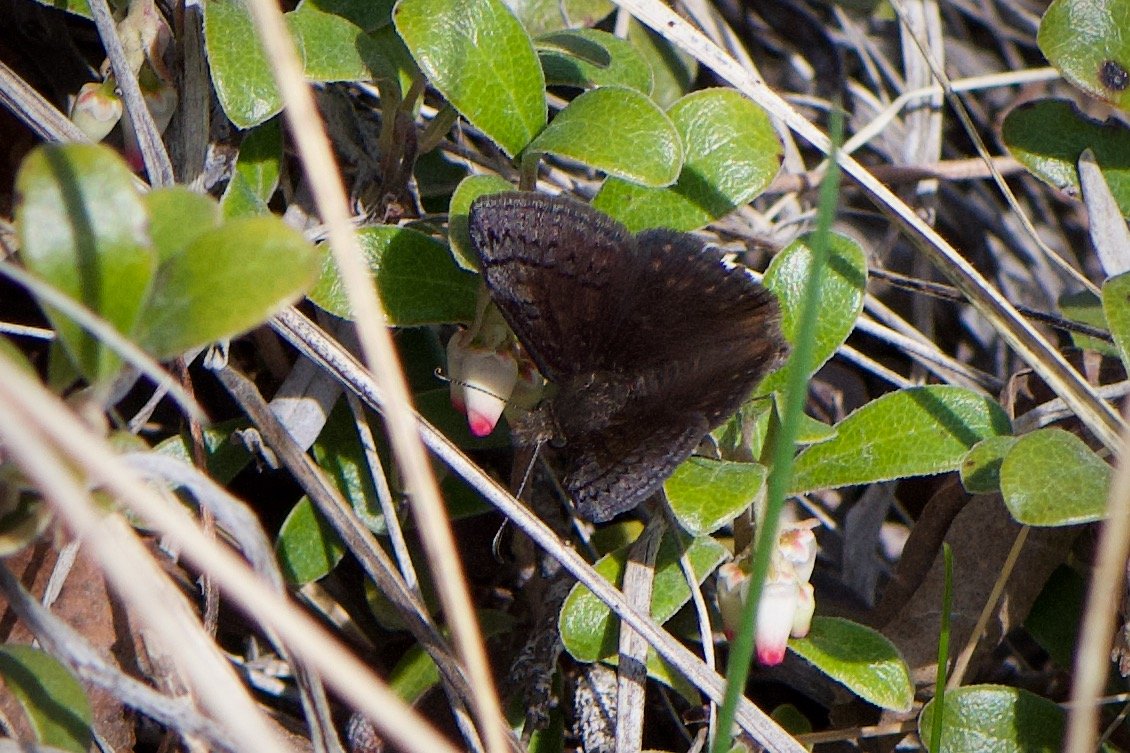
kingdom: Animalia
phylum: Arthropoda
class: Insecta
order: Lepidoptera
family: Hesperiidae
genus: Erynnis
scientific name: Erynnis icelus
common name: Dreamy Duskywing
